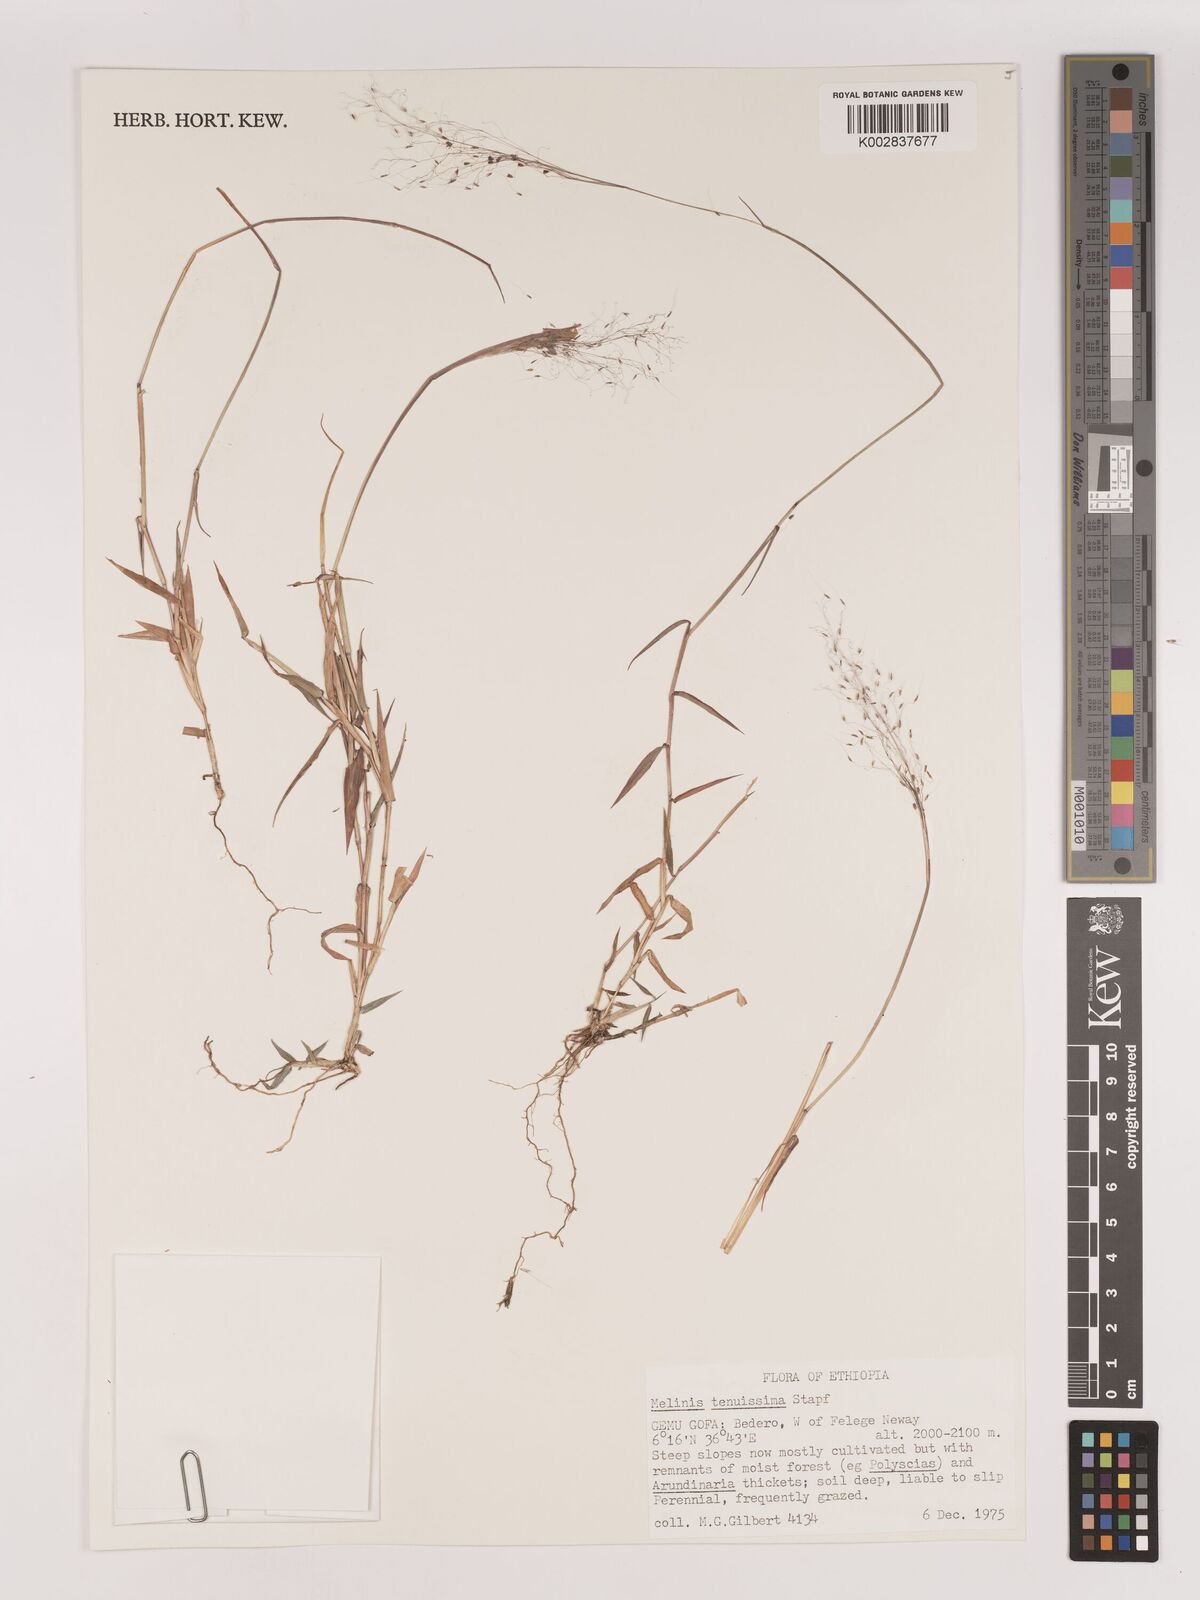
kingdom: Plantae
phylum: Tracheophyta
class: Liliopsida
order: Poales
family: Poaceae
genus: Melinis
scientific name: Melinis tenuissima
